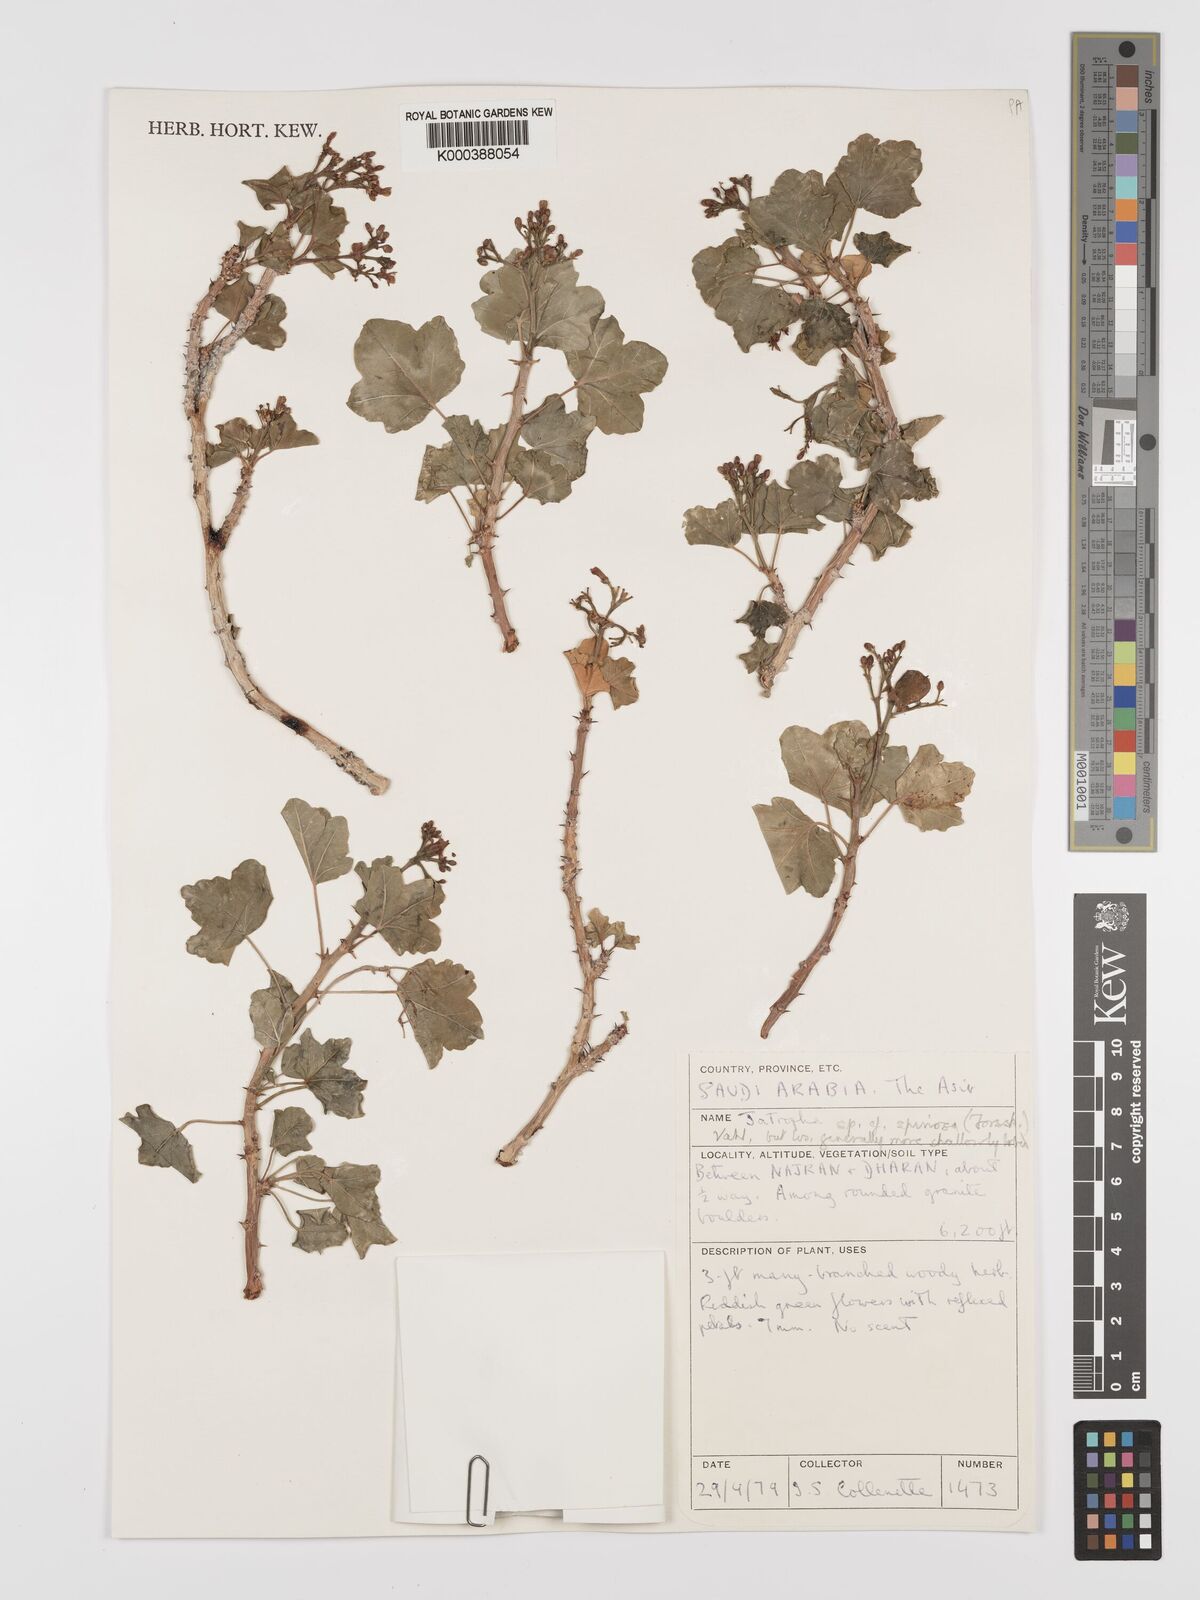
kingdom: Plantae
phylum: Tracheophyta
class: Magnoliopsida
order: Malpighiales
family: Euphorbiaceae
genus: Jatropha
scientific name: Jatropha spinosa
